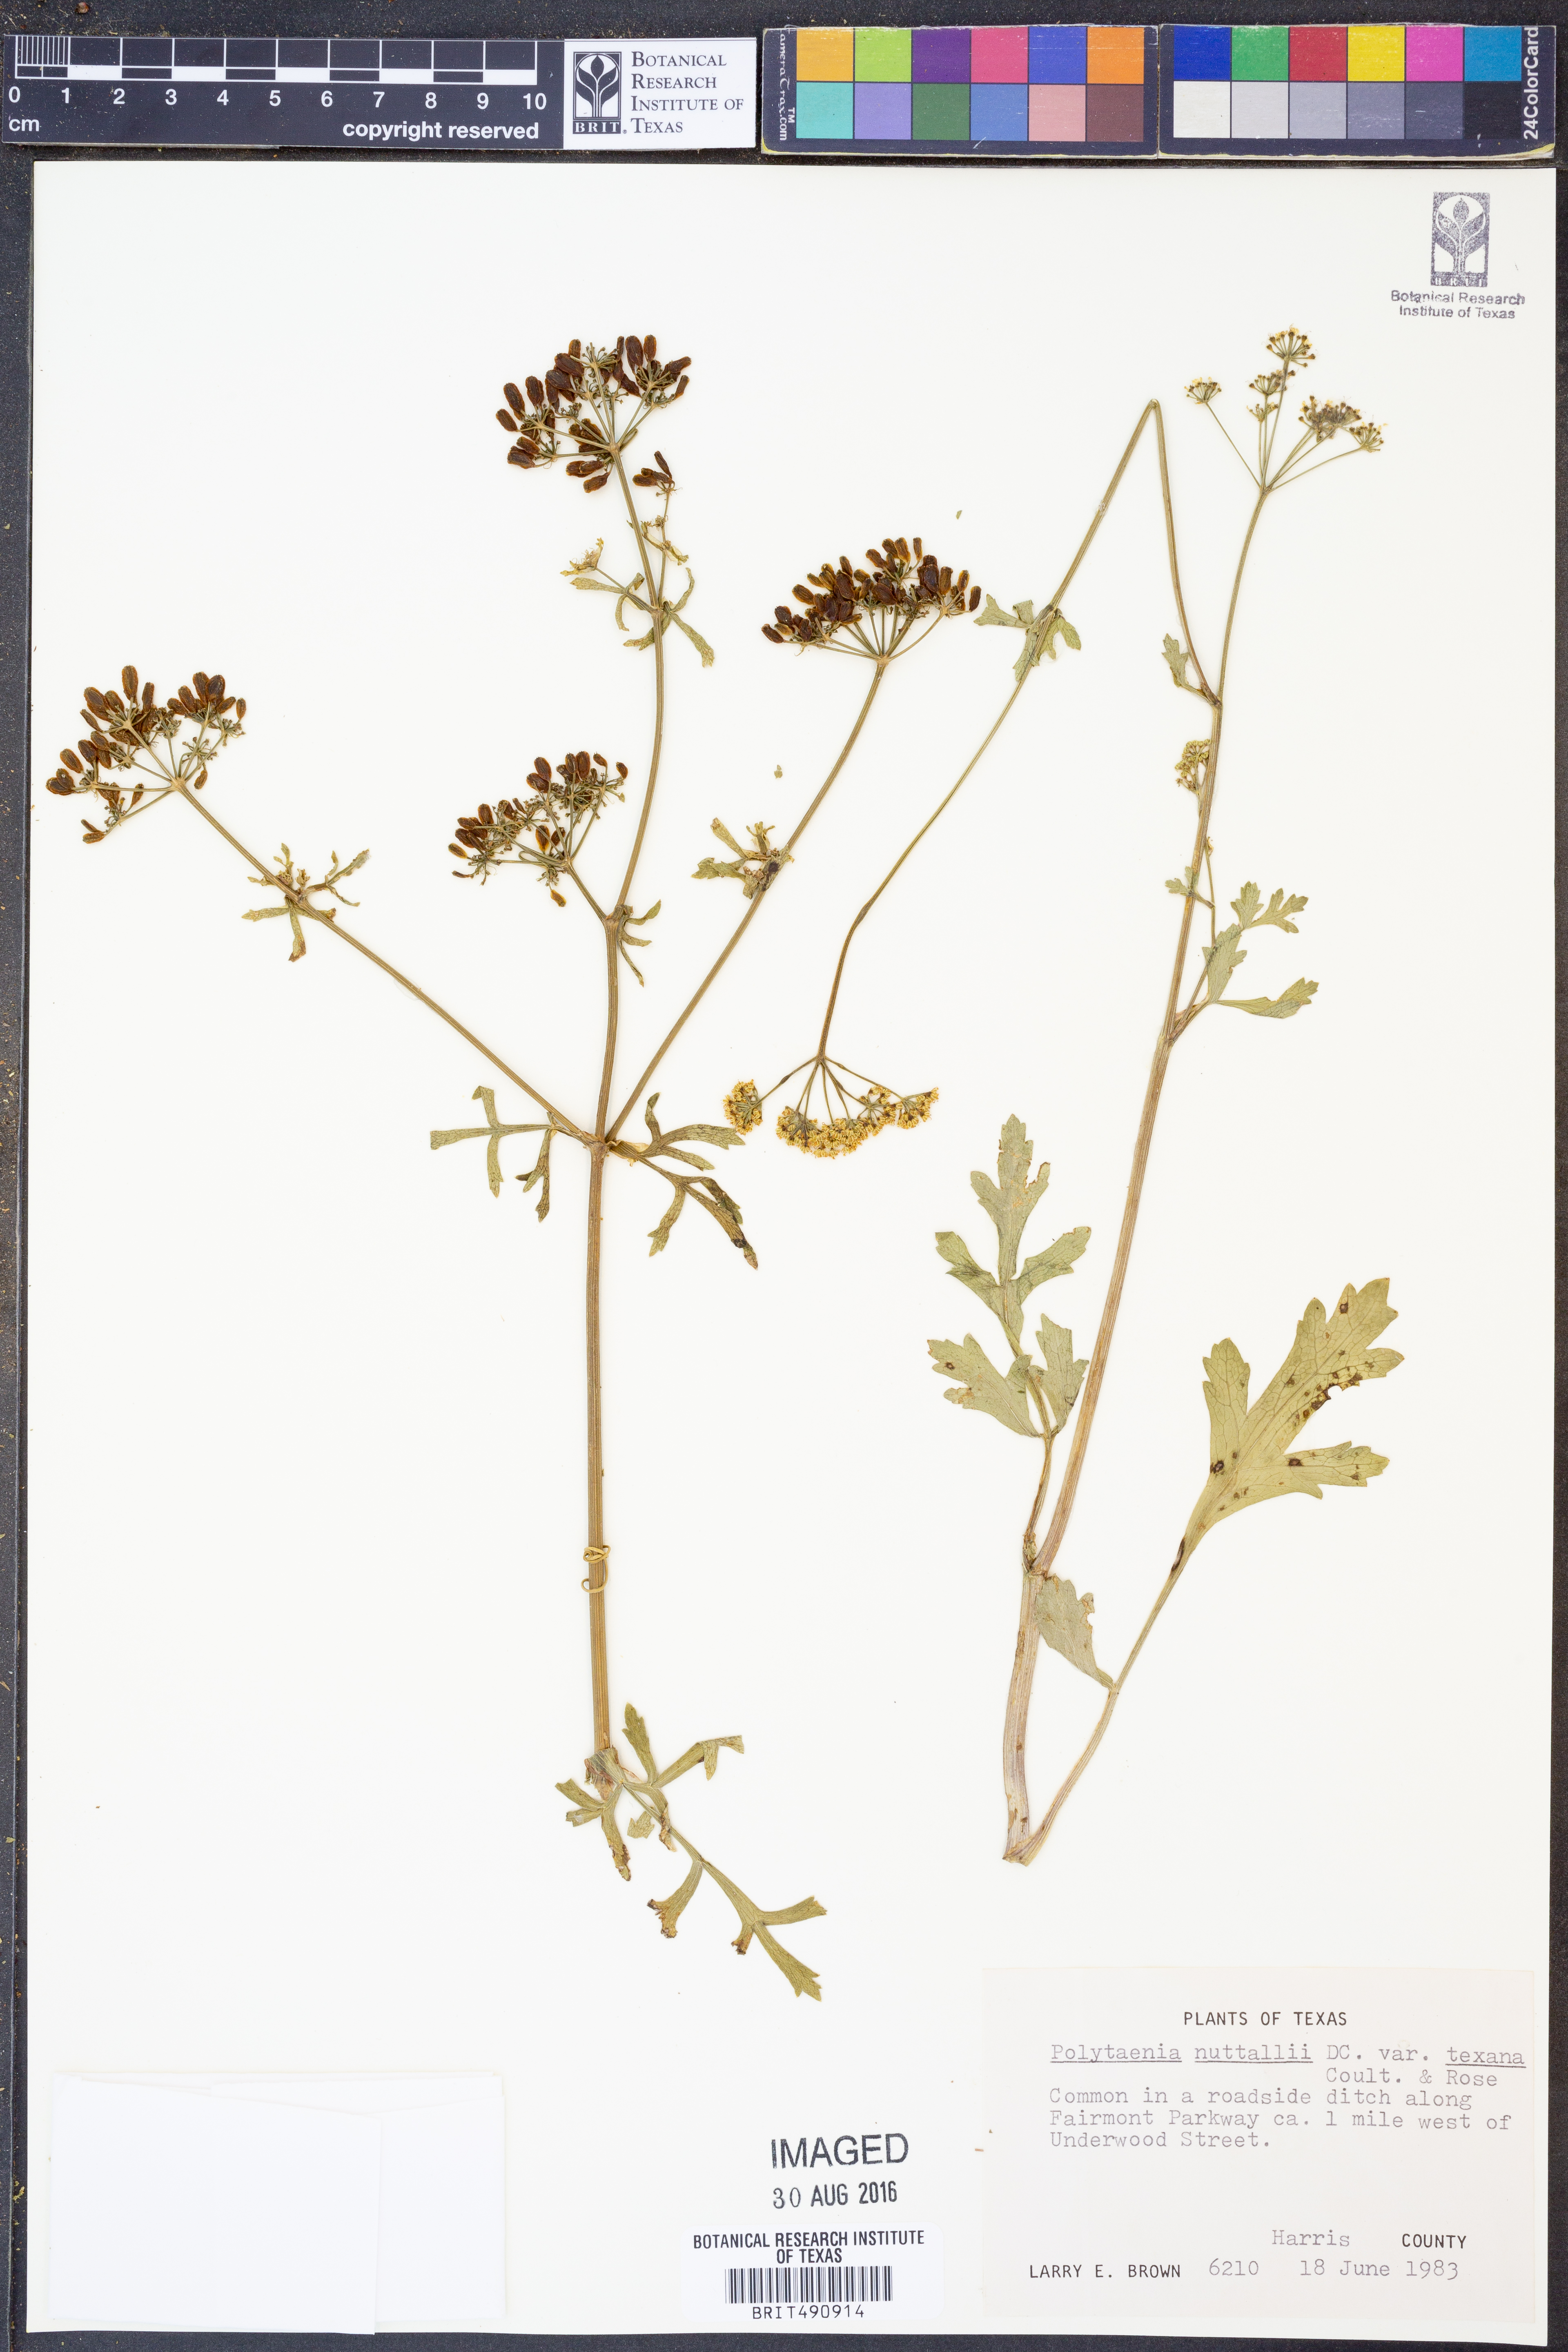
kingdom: Plantae
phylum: Tracheophyta
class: Magnoliopsida
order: Apiales
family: Apiaceae
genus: Polytaenia
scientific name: Polytaenia texana
